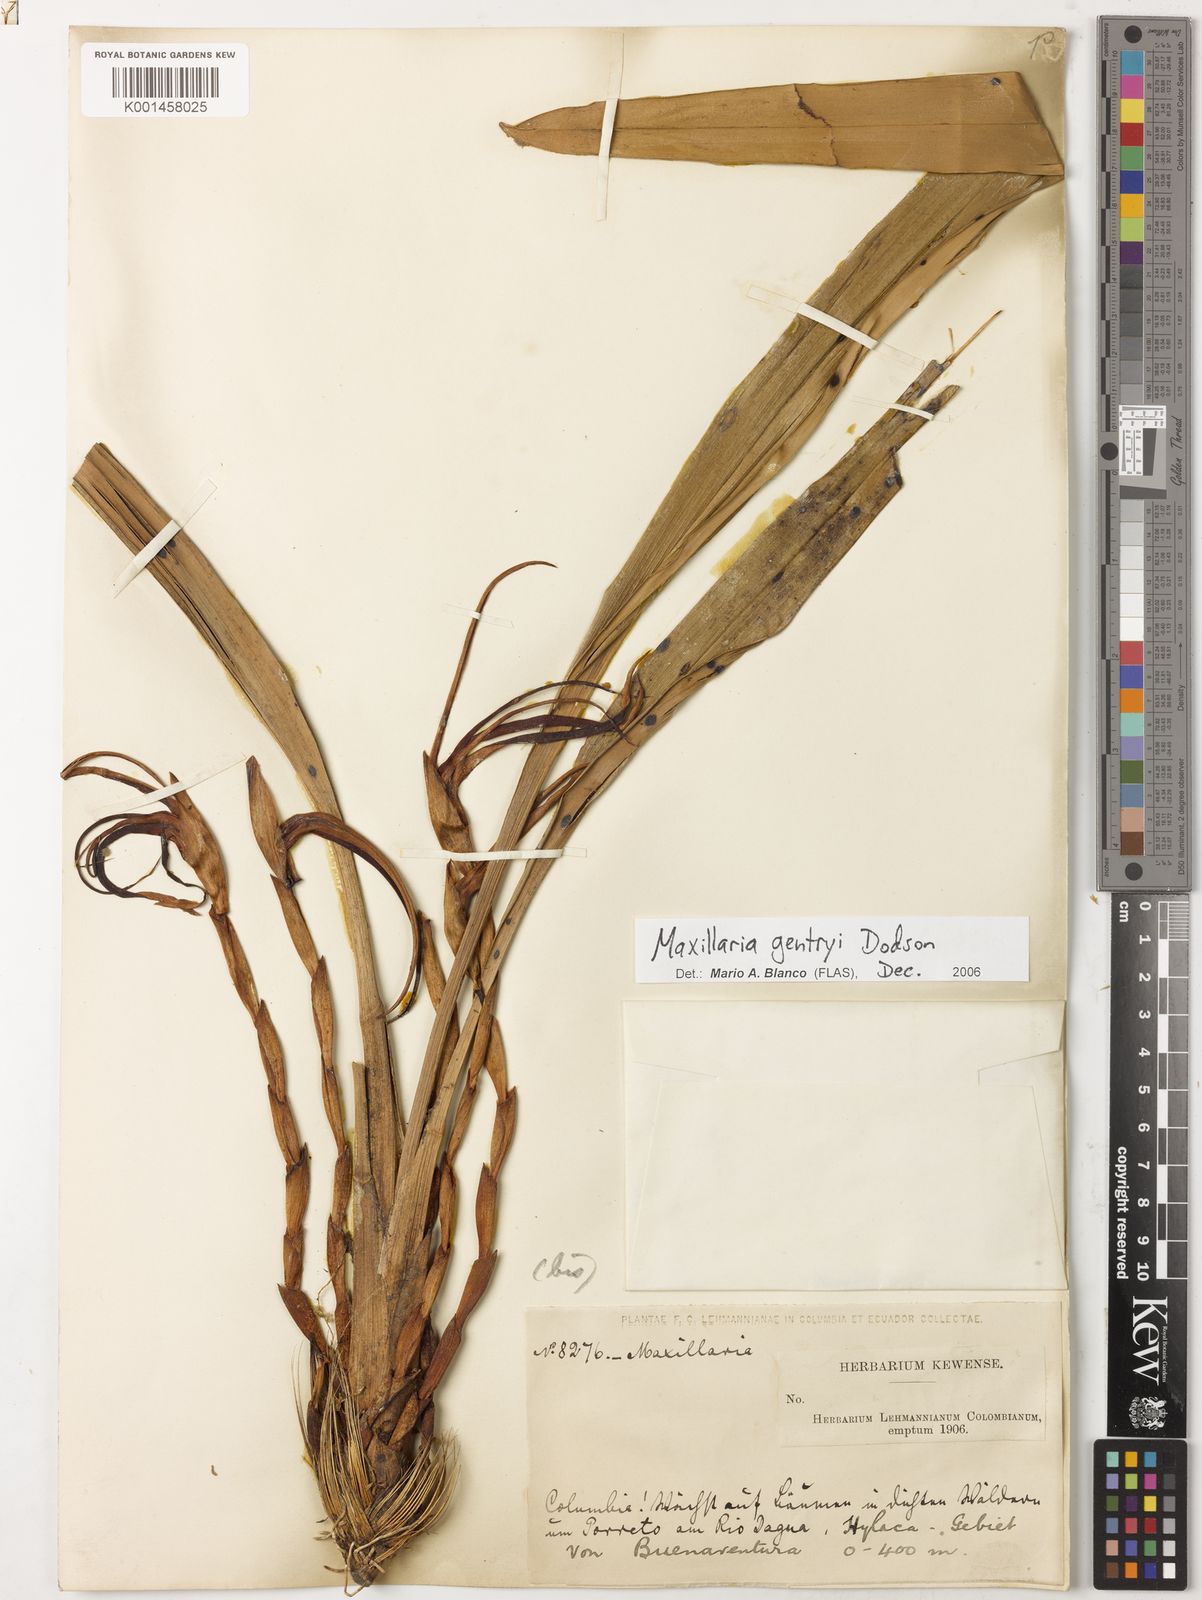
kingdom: Plantae
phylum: Tracheophyta
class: Liliopsida
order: Asparagales
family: Orchidaceae
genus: Maxillaria
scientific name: Maxillaria gentryi
